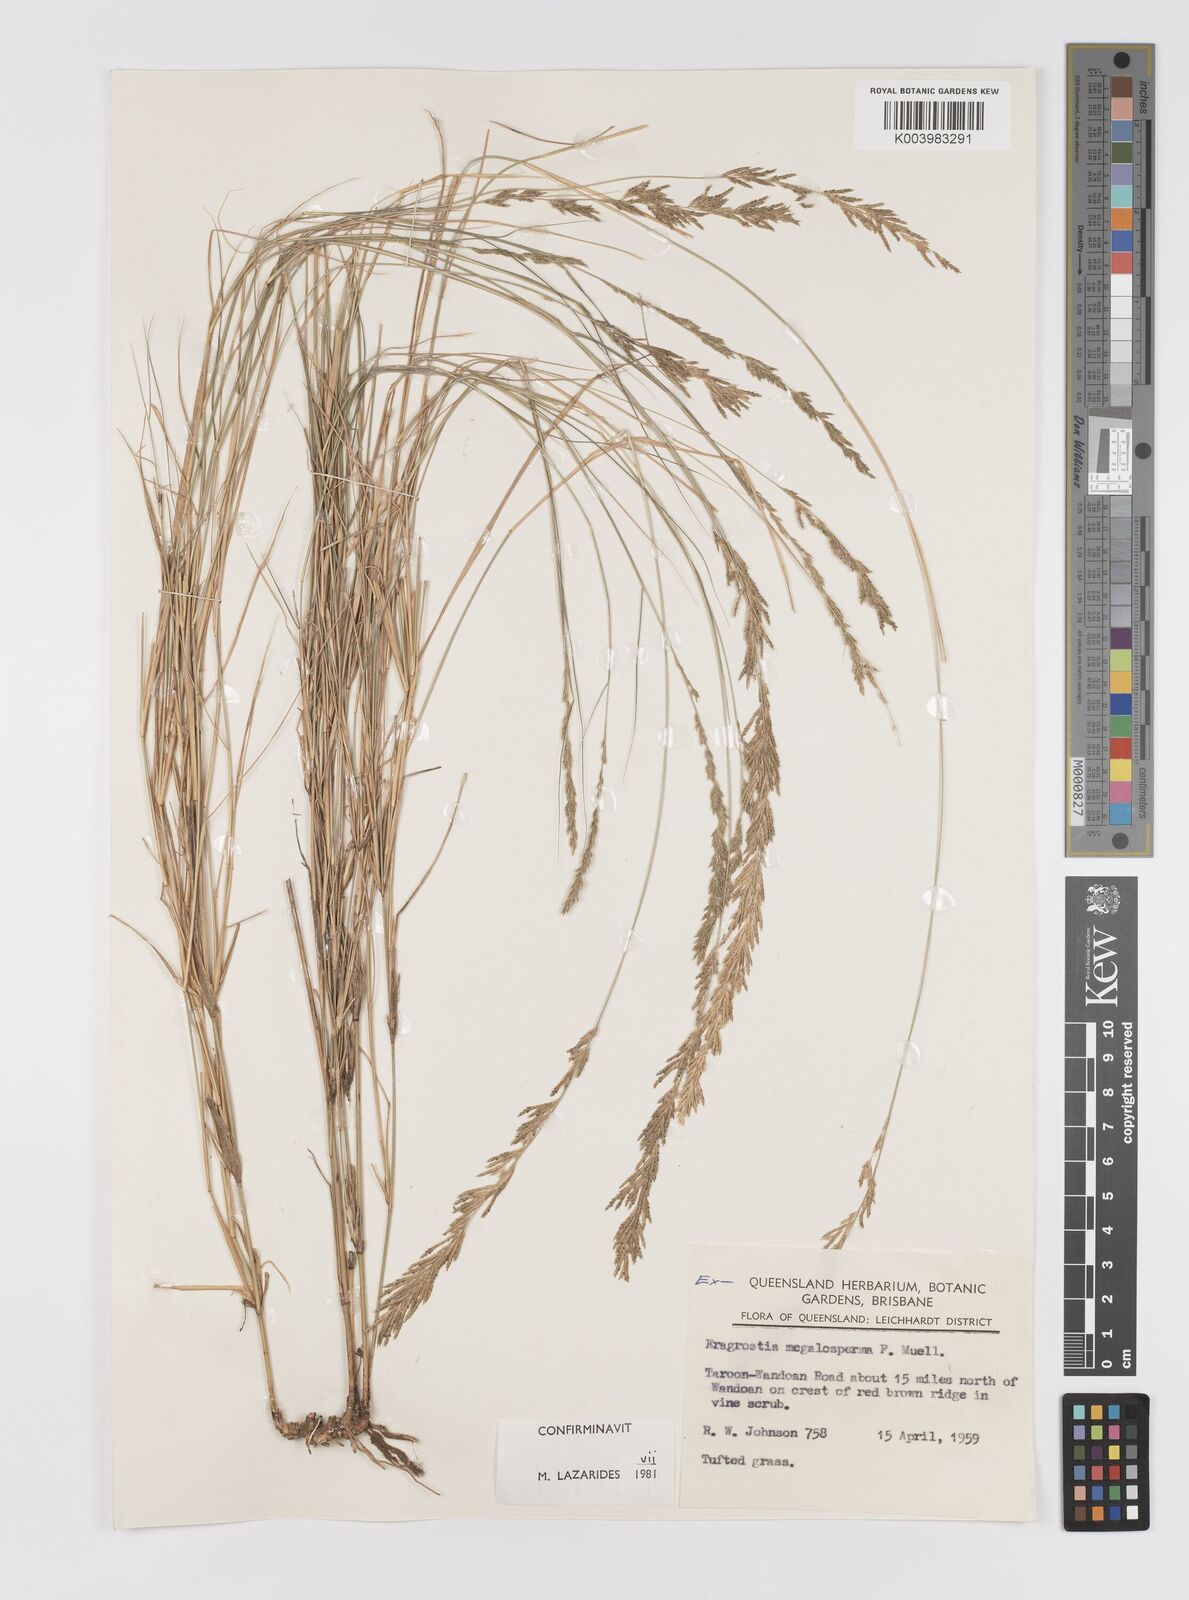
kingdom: Plantae
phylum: Tracheophyta
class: Liliopsida
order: Poales
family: Poaceae
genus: Sporobolus
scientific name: Sporobolus megalospermus
